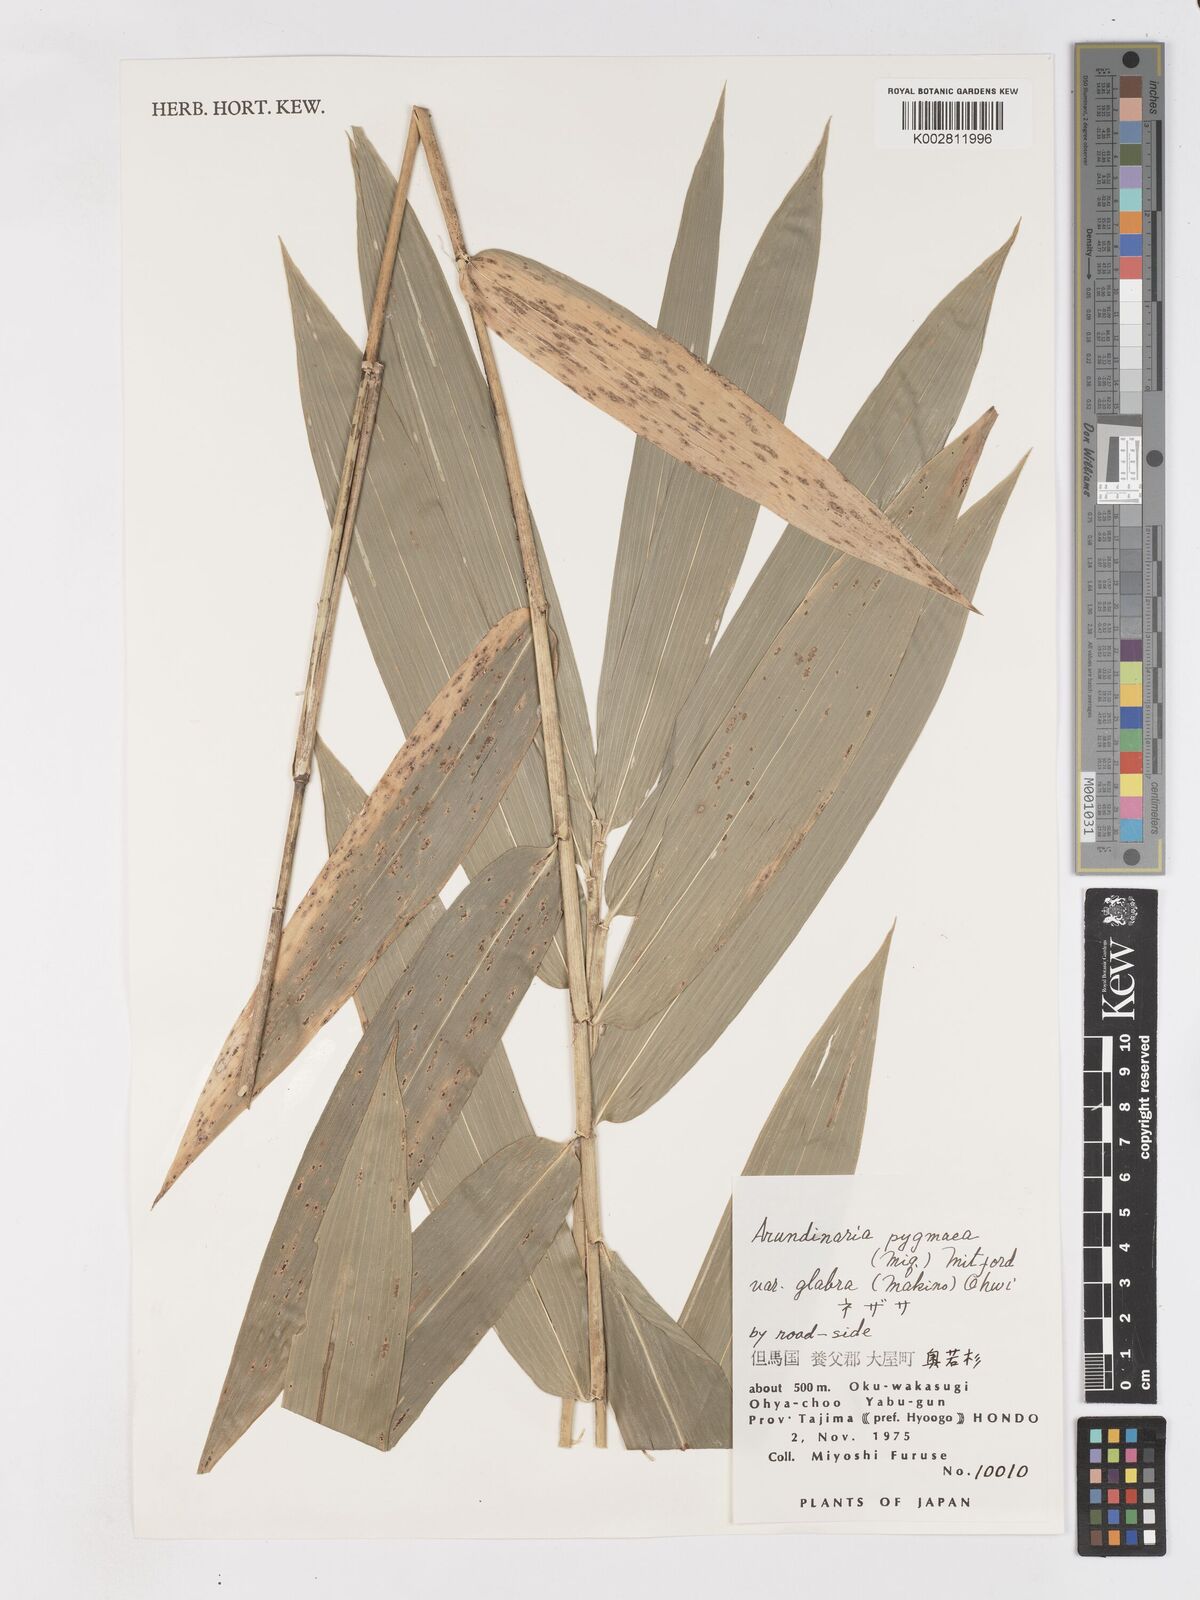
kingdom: Plantae
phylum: Tracheophyta
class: Liliopsida
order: Poales
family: Poaceae
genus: Pleioblastus
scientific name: Pleioblastus variegatus
